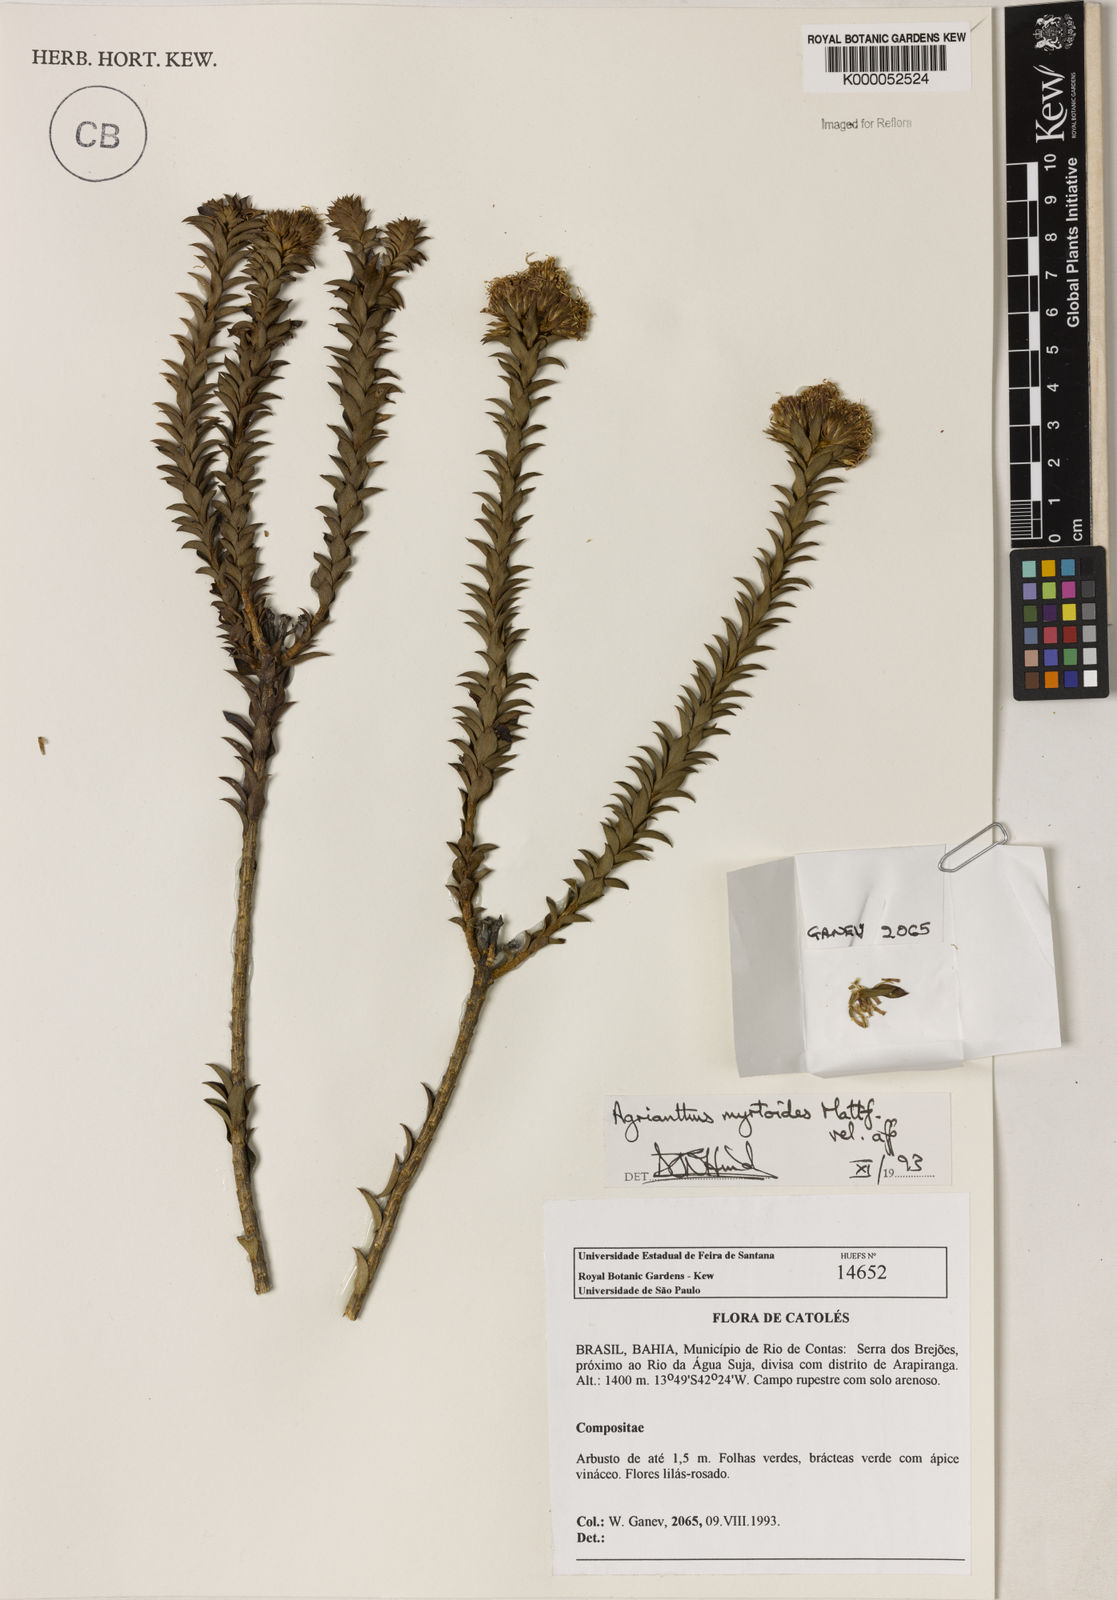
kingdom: Plantae
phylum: Tracheophyta
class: Magnoliopsida
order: Asterales
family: Asteraceae
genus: Agrianthus
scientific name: Agrianthus myrtoides
